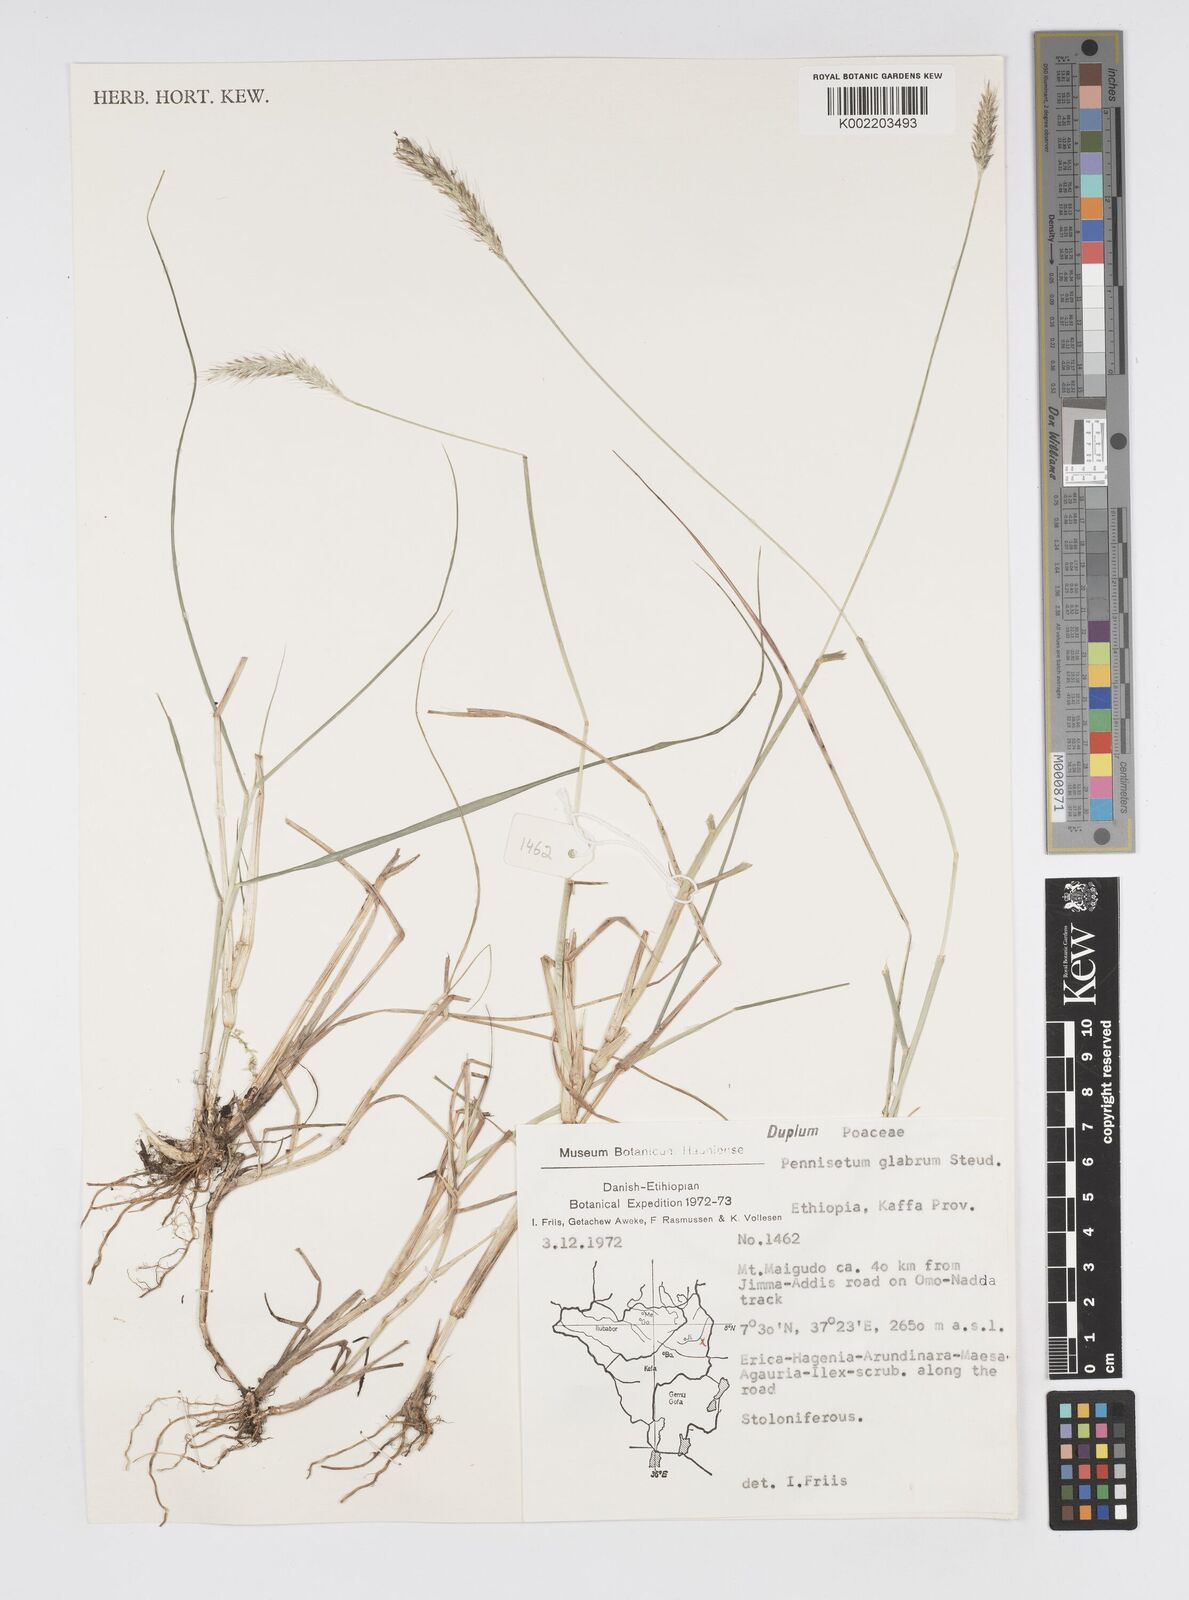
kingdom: Plantae
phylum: Tracheophyta
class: Liliopsida
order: Poales
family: Poaceae
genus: Cenchrus
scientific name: Cenchrus geniculatus
